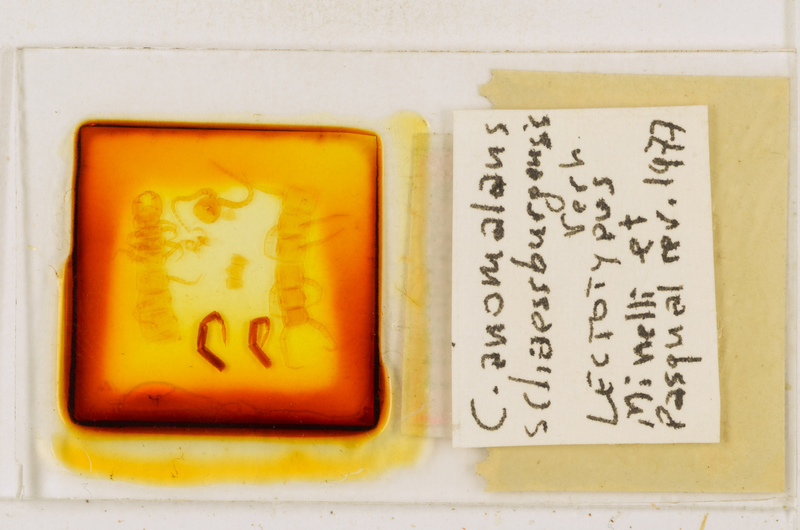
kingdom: Animalia
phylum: Arthropoda
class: Chilopoda
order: Scolopendromorpha
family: Cryptopidae
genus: Cryptops
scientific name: Cryptops anomalans
